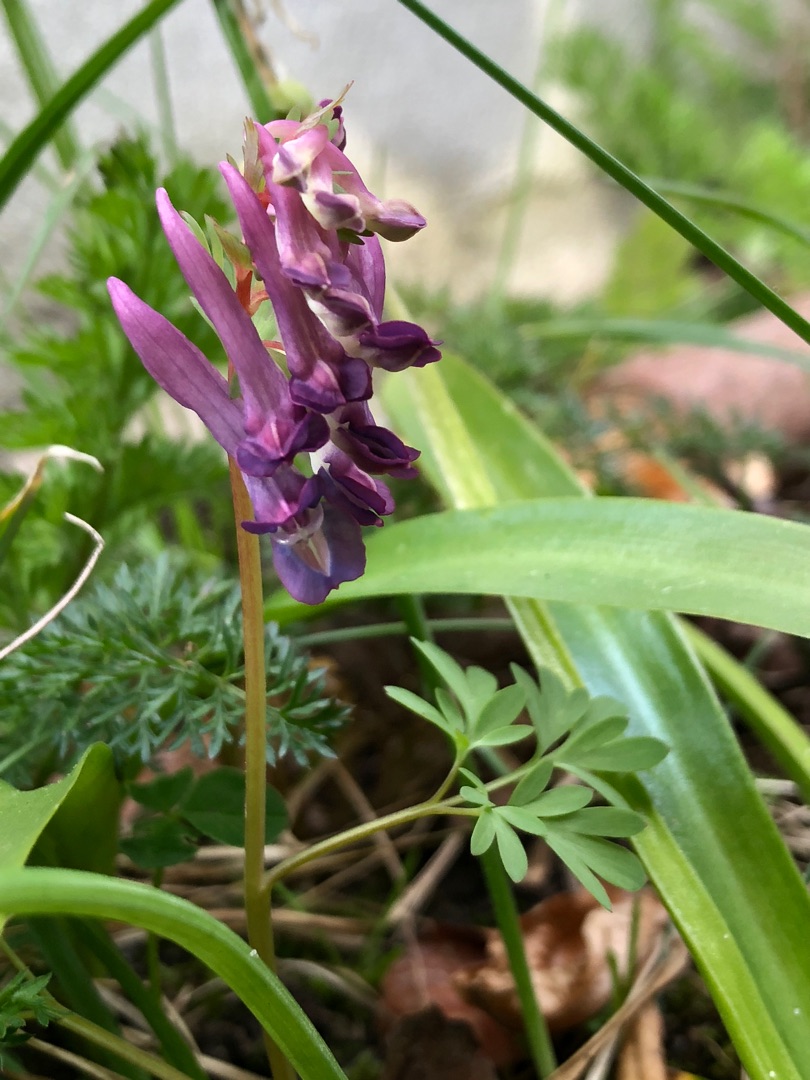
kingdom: Plantae
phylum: Tracheophyta
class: Magnoliopsida
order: Ranunculales
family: Papaveraceae
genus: Corydalis
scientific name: Corydalis solida
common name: Langstilket lærkespore
